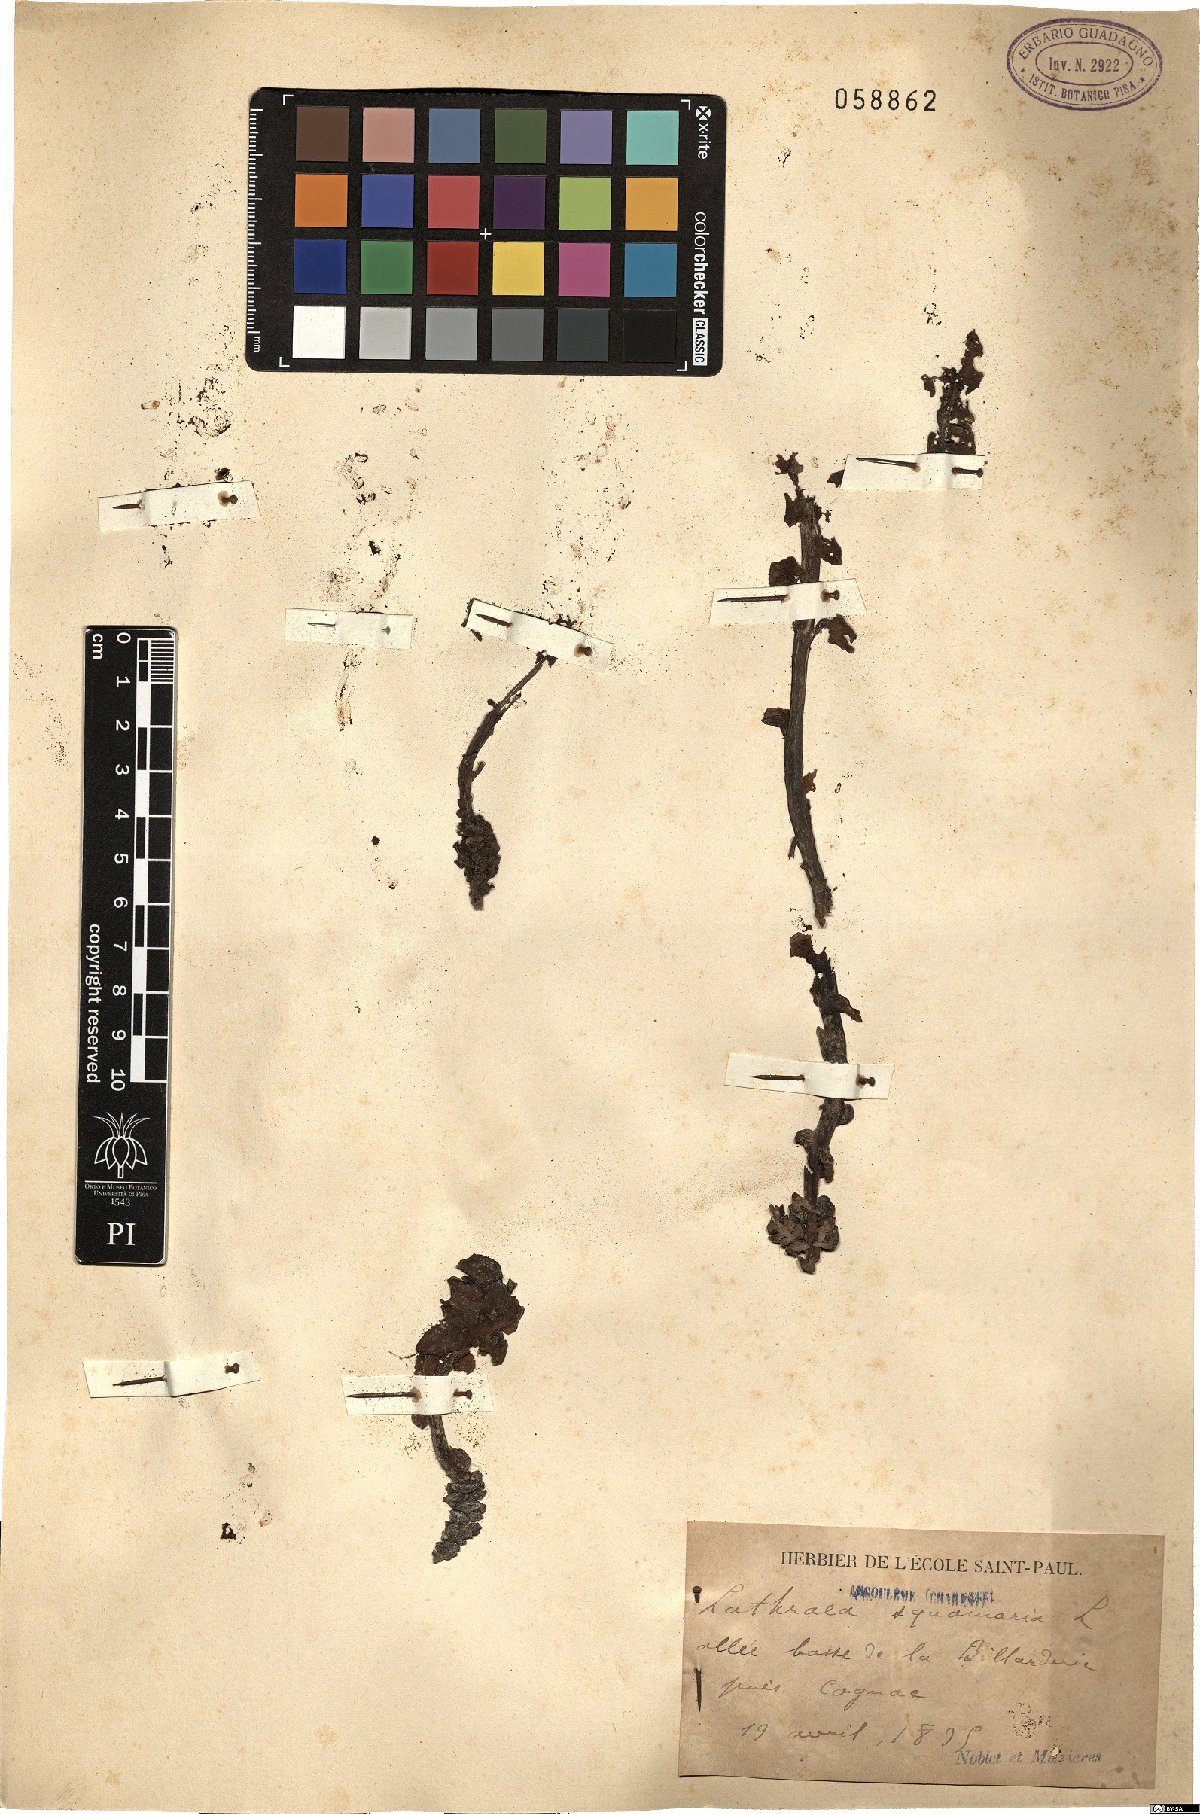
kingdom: Plantae
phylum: Tracheophyta
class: Magnoliopsida
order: Lamiales
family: Orobanchaceae
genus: Lathraea
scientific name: Lathraea squamaria
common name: Toothwort
